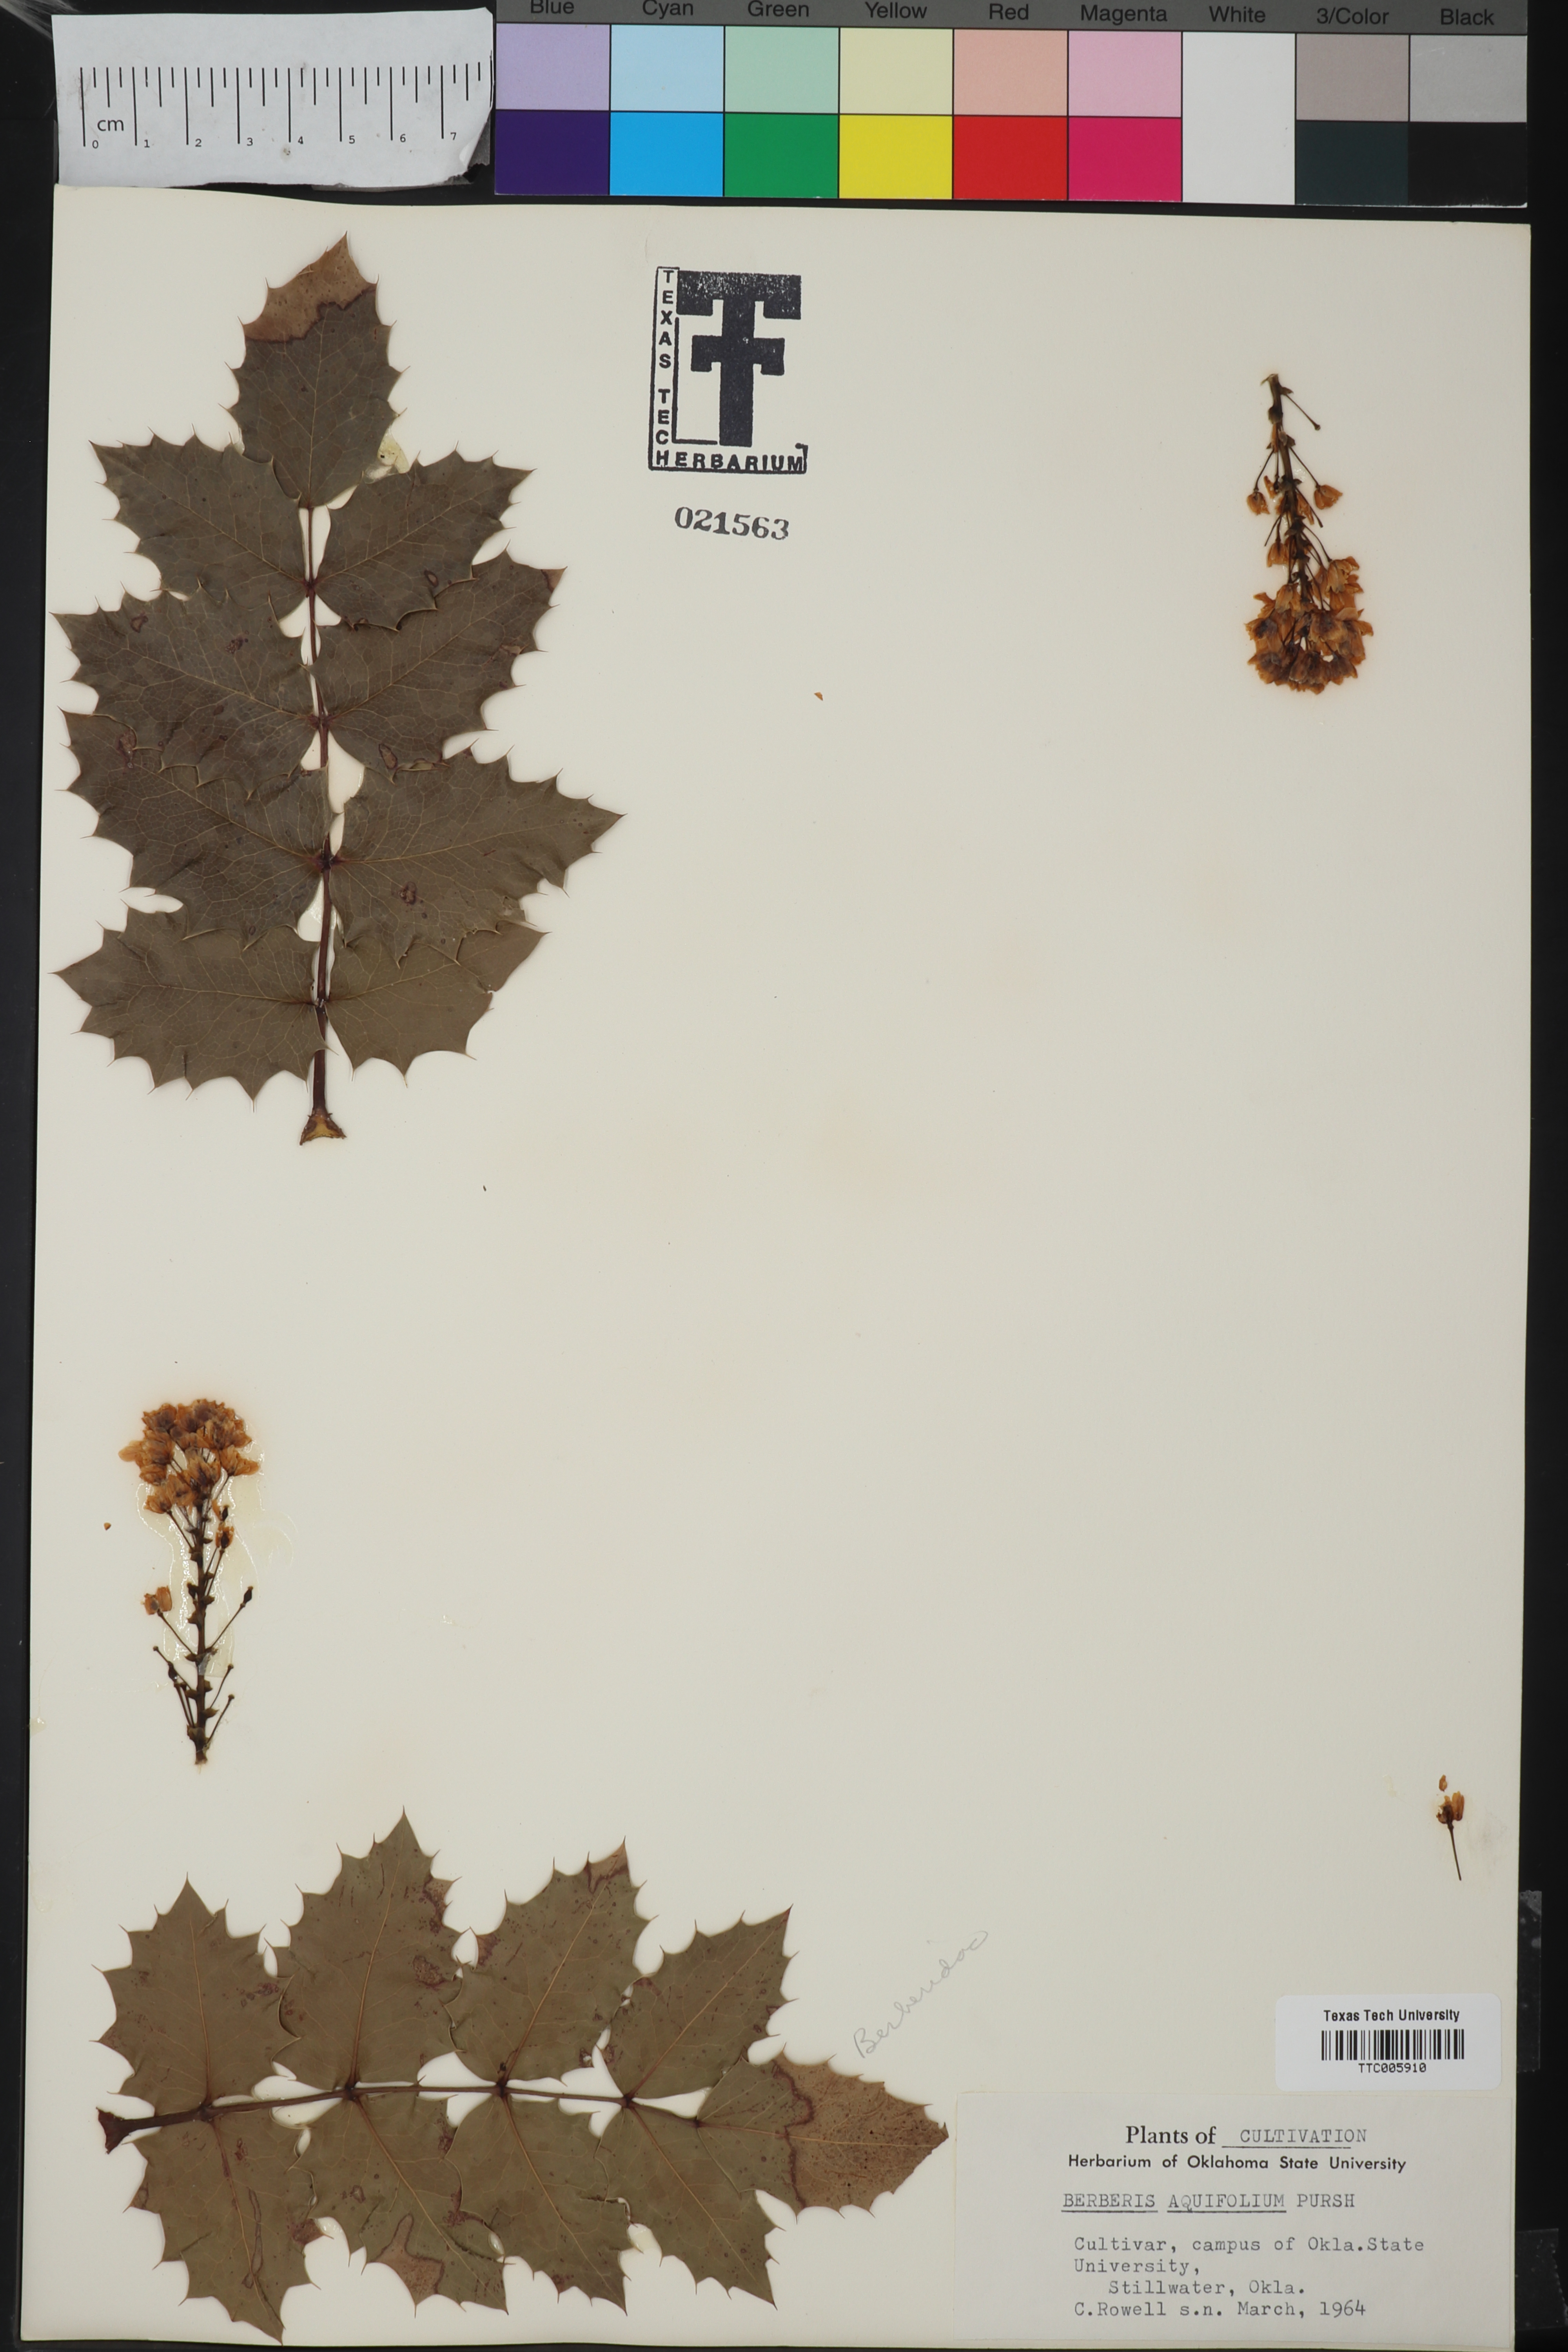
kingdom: Plantae
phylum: Tracheophyta
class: Magnoliopsida
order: Ranunculales
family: Berberidaceae
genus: Mahonia
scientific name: Mahonia aquifolium
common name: Oregon-grape
